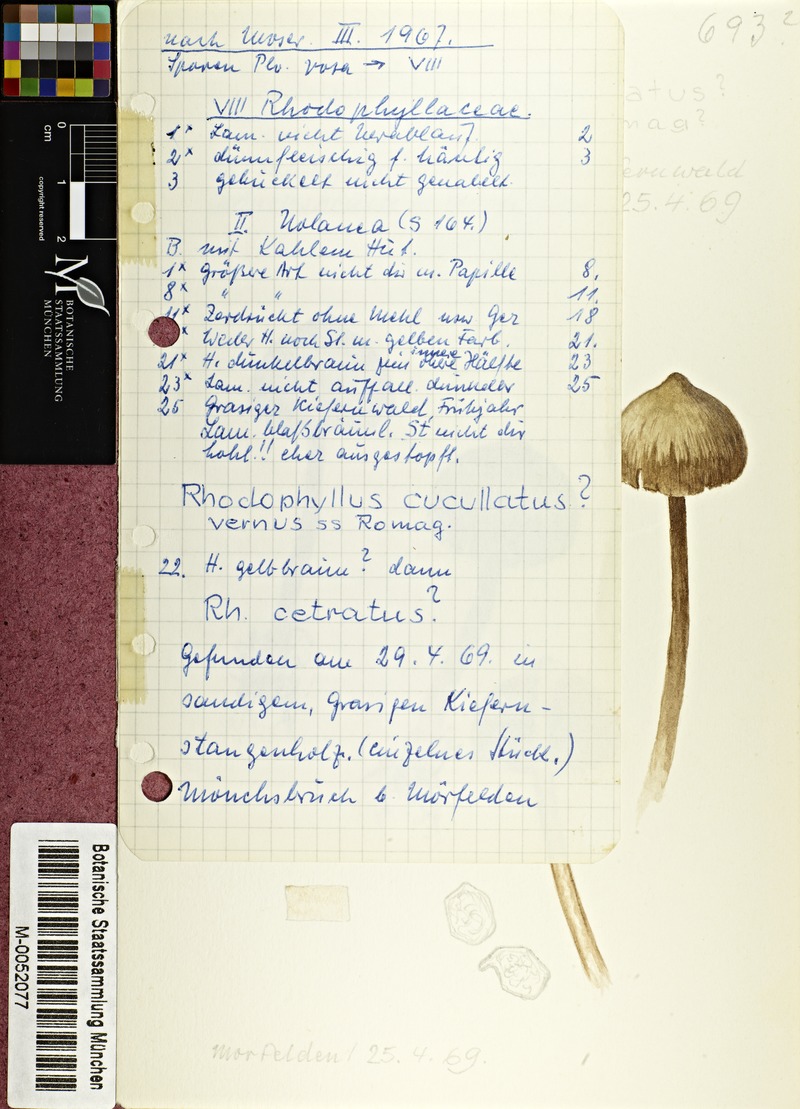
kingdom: Fungi
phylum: Basidiomycota
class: Agaricomycetes
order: Agaricales
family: Entolomataceae
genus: Entoloma
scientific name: Entoloma vernum
